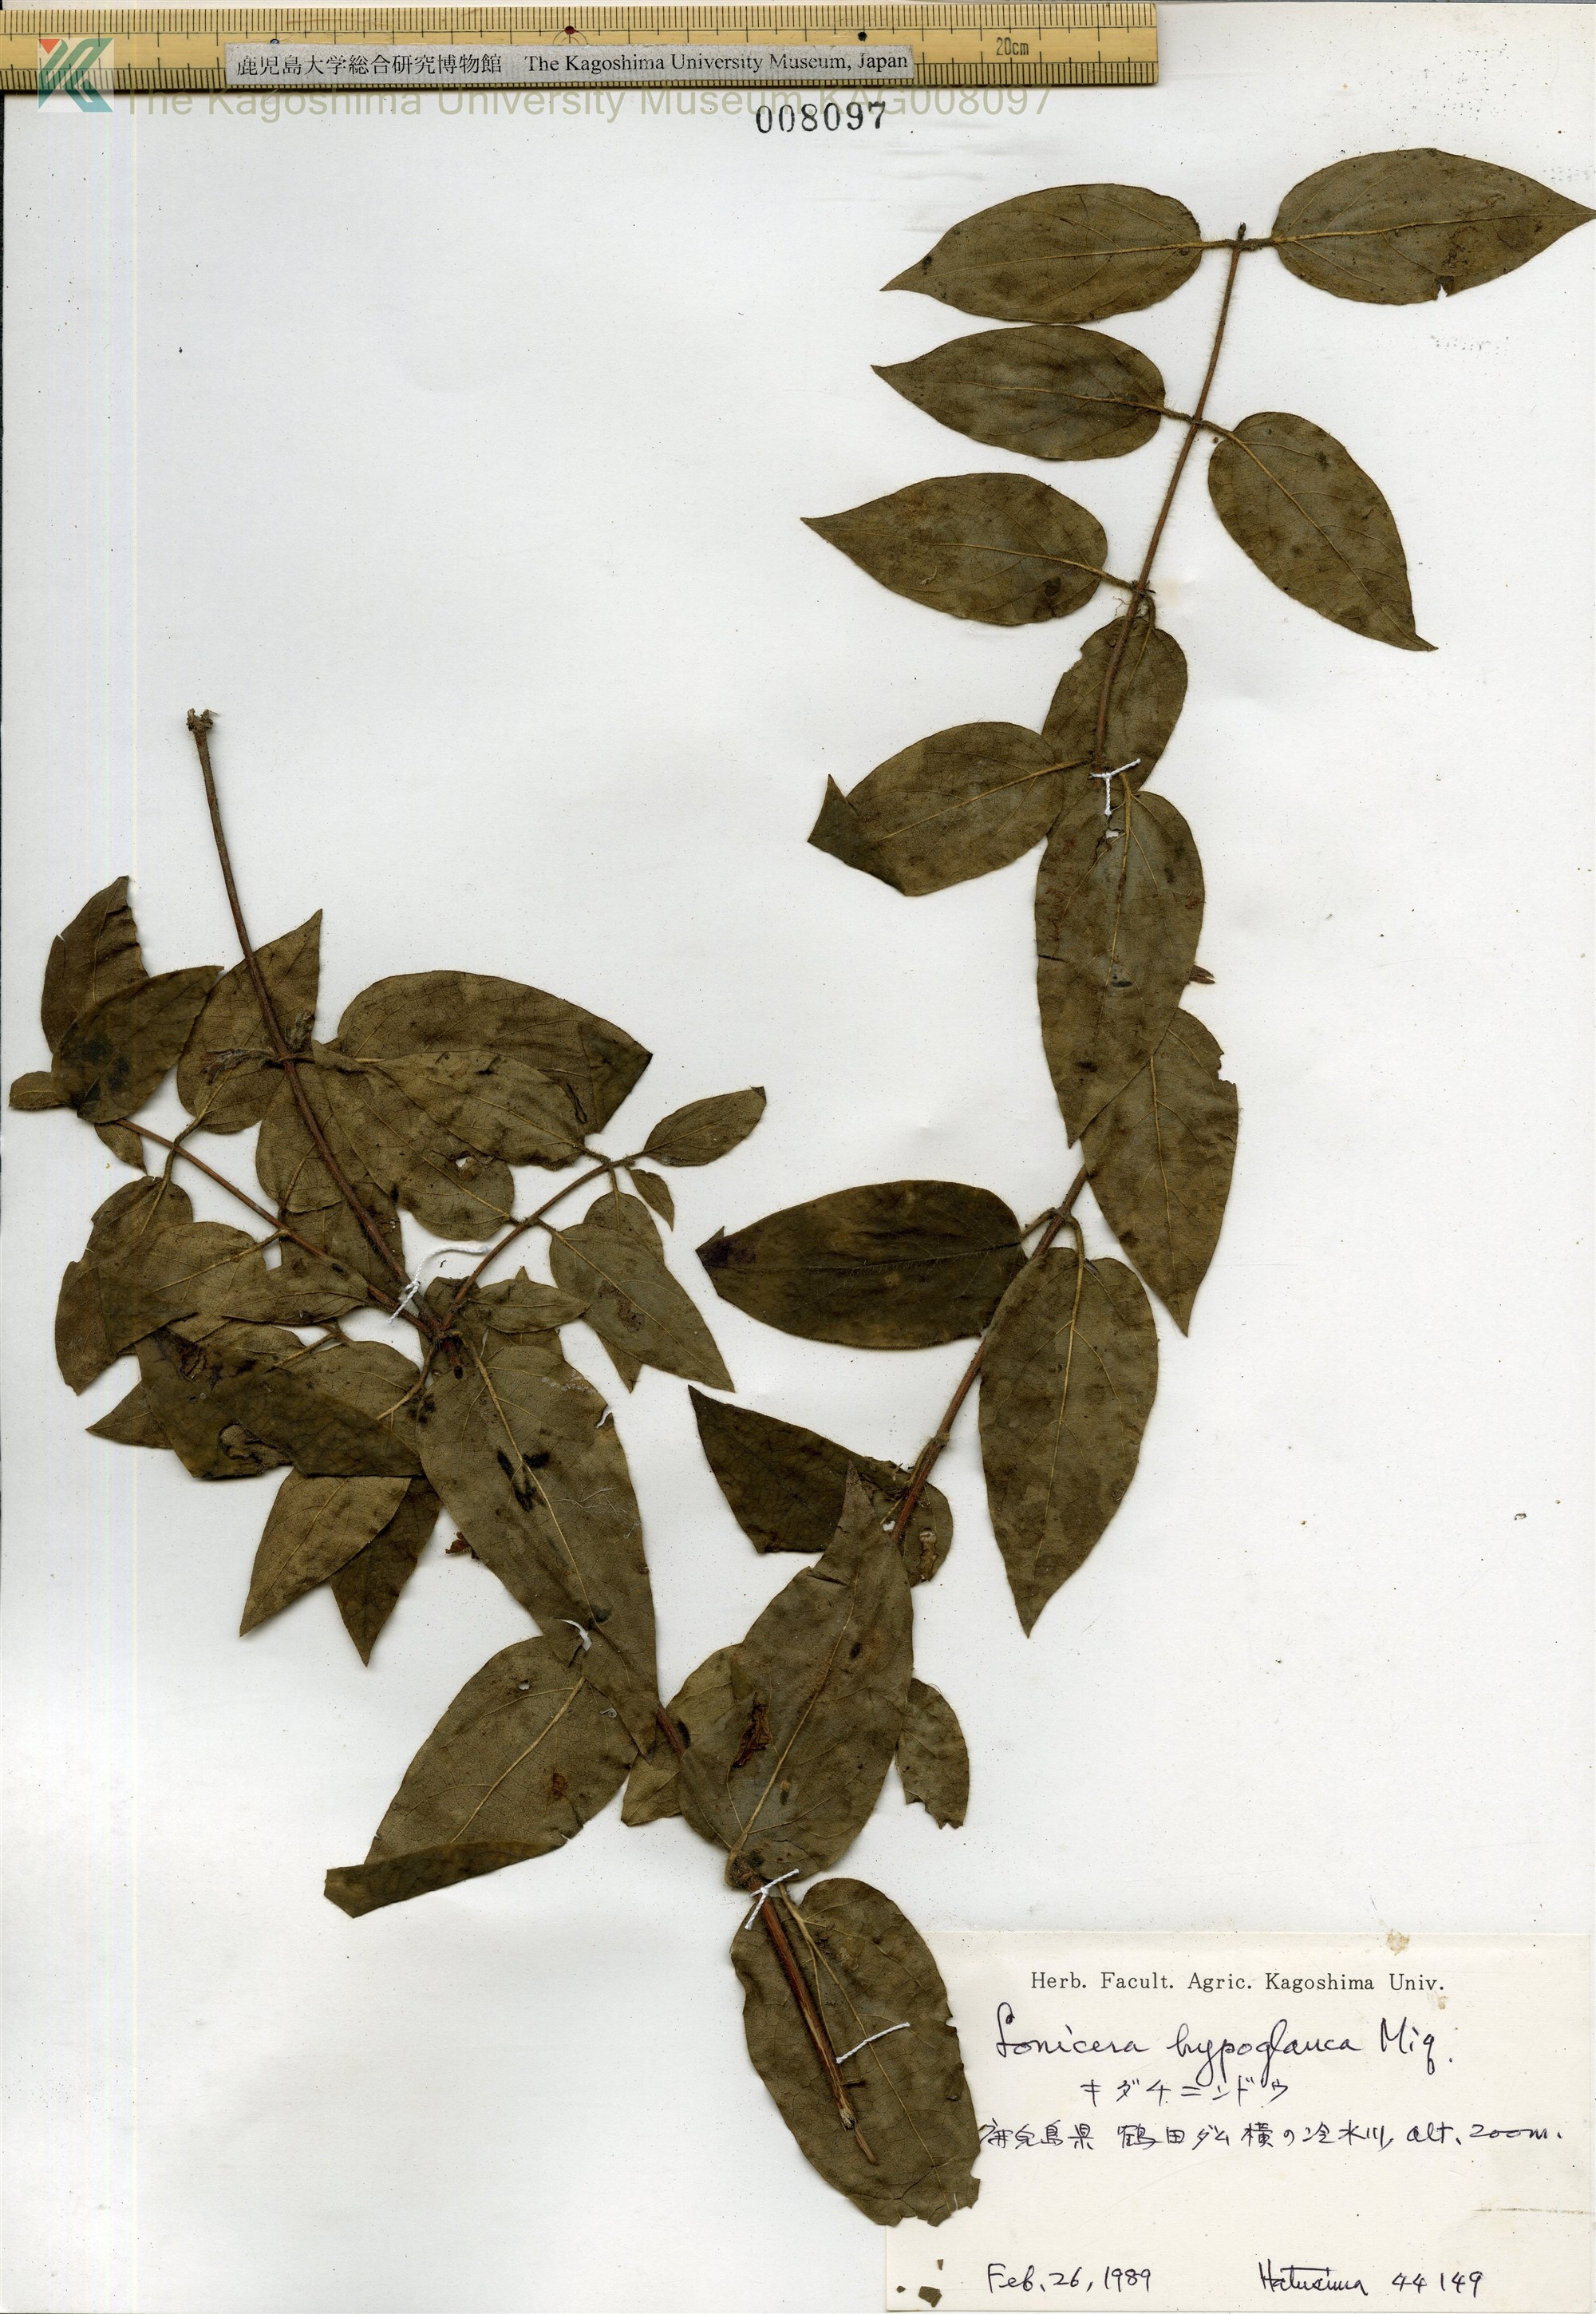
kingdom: Plantae
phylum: Tracheophyta
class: Magnoliopsida
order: Dipsacales
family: Caprifoliaceae
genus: Lonicera
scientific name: Lonicera hypoglauca
